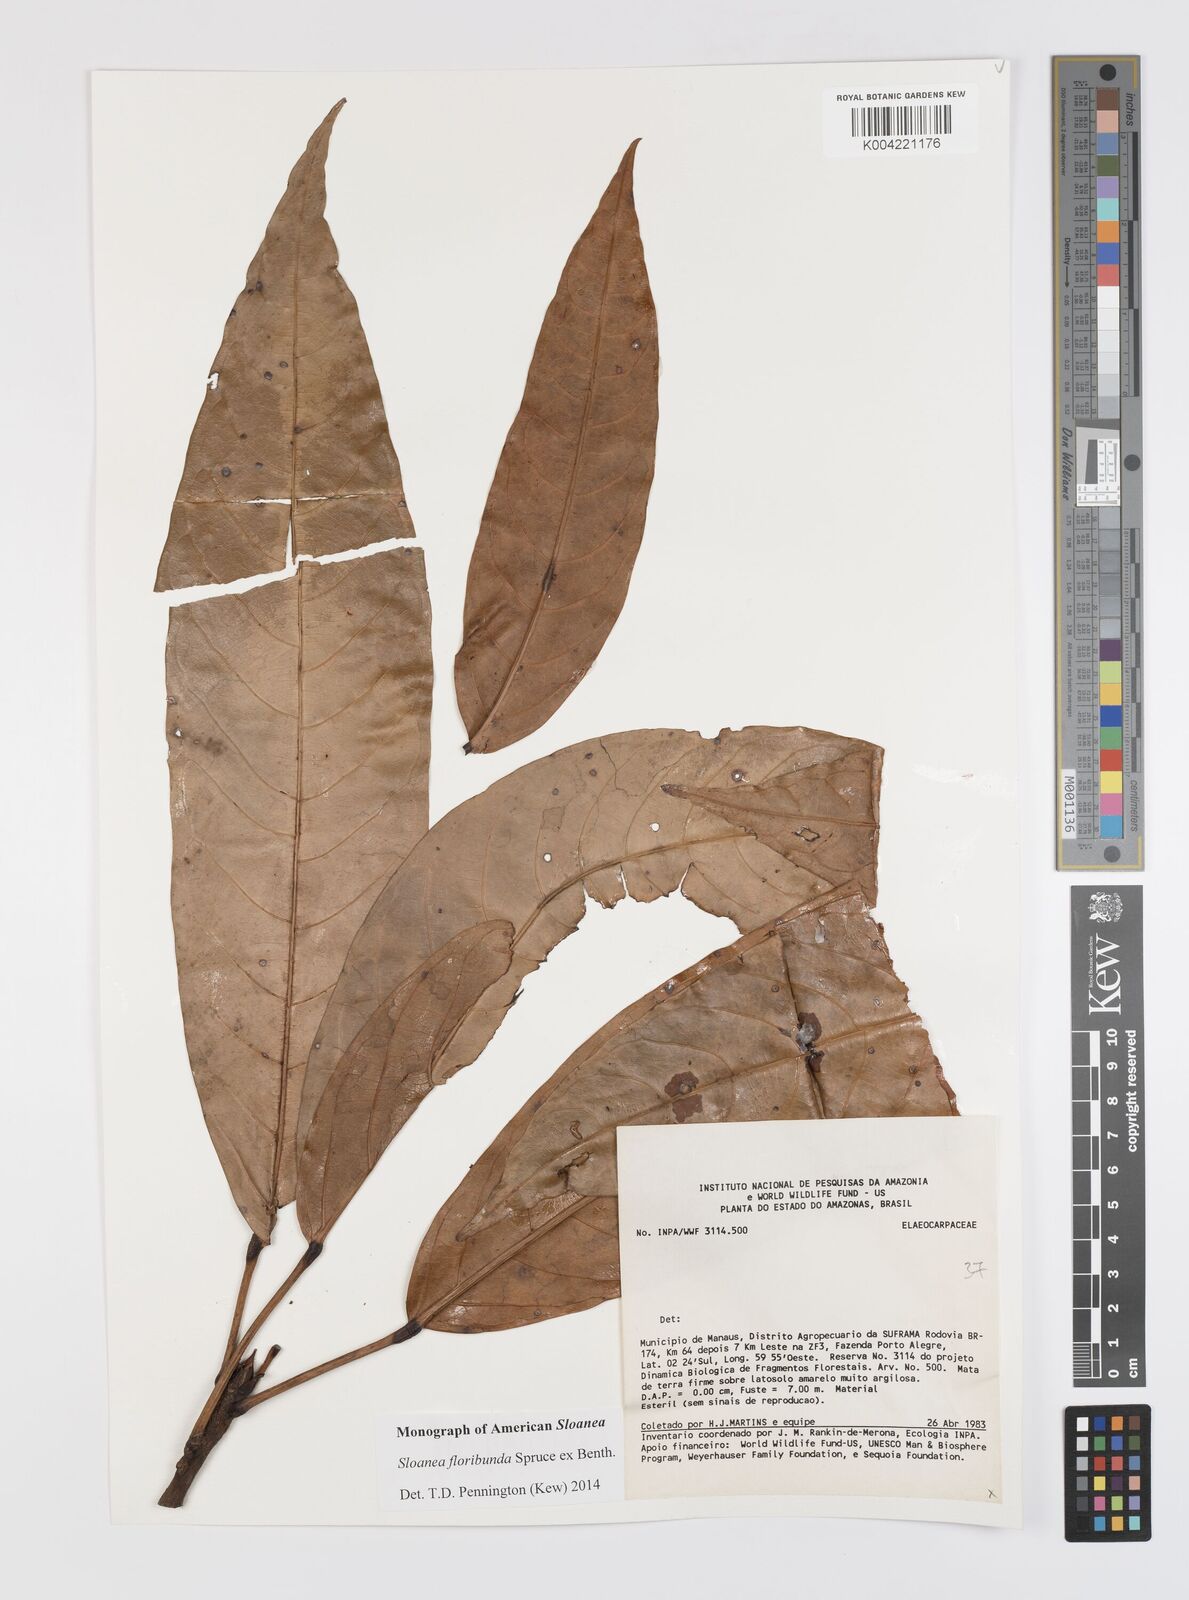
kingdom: Plantae
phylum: Tracheophyta
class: Magnoliopsida
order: Oxalidales
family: Elaeocarpaceae
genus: Sloanea
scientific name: Sloanea floribunda
